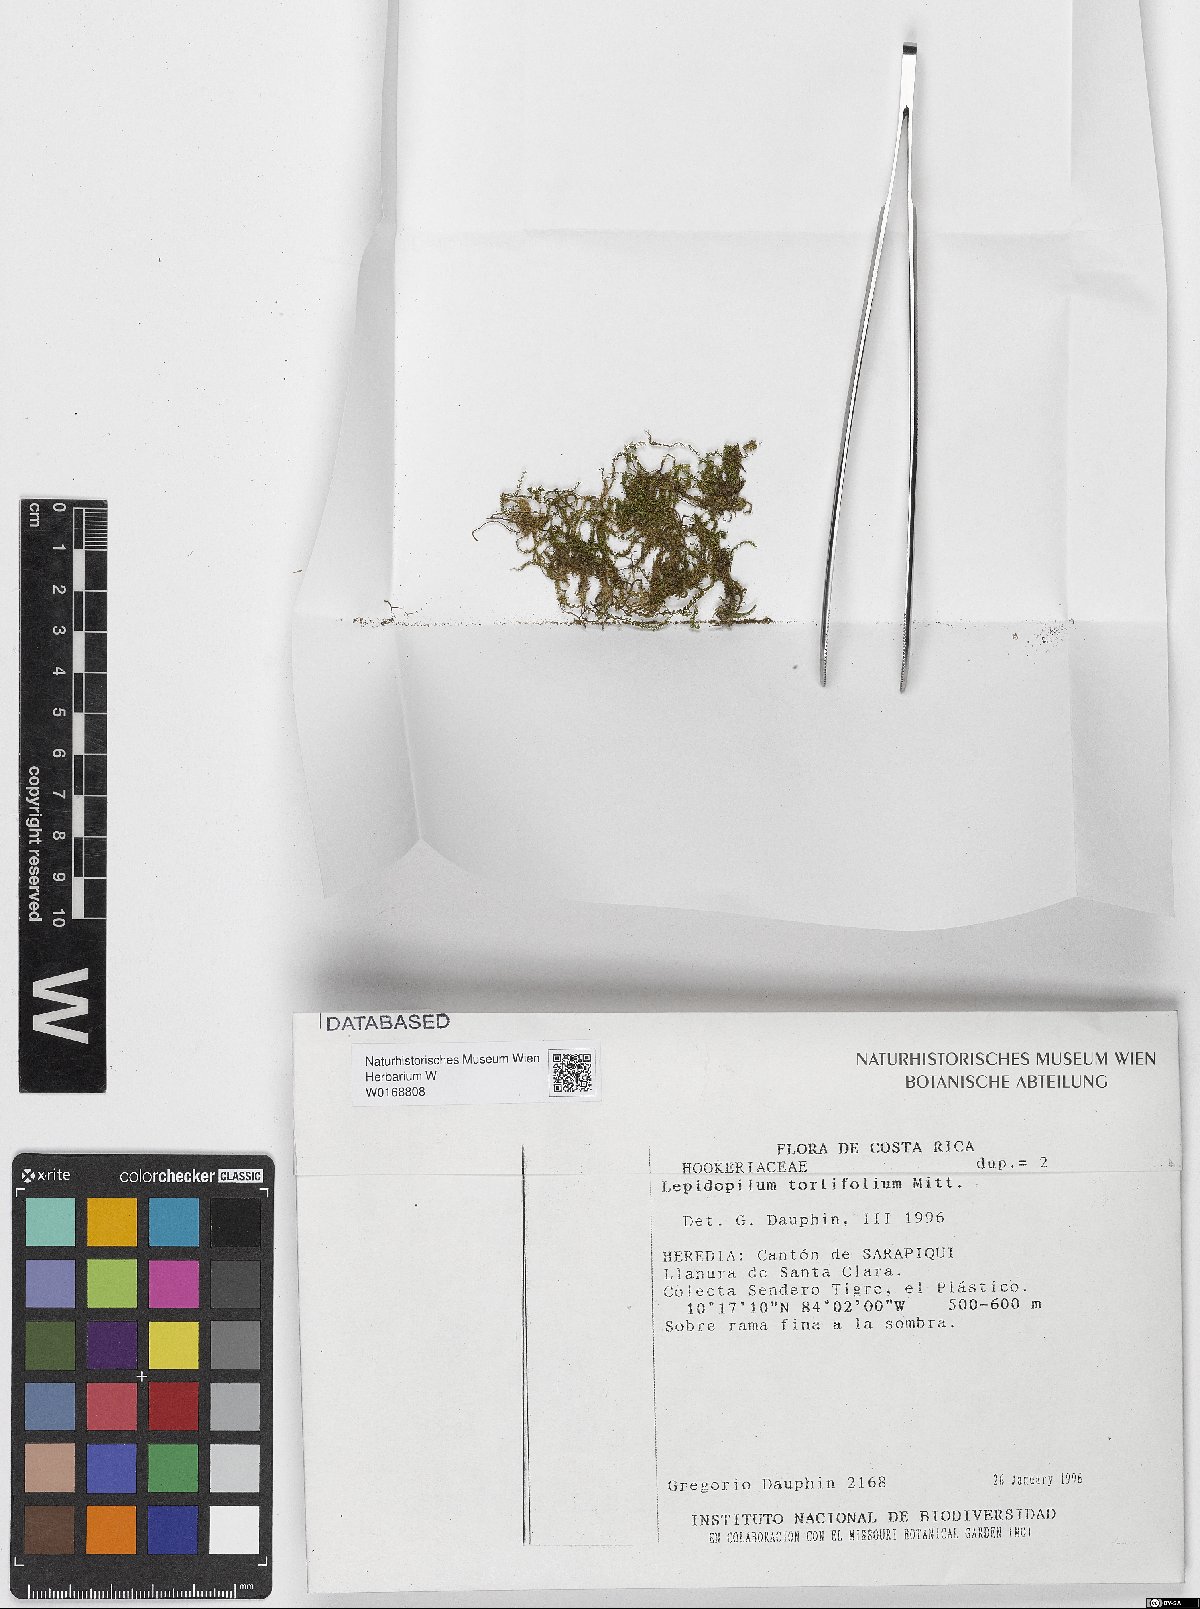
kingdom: Plantae
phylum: Bryophyta
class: Bryopsida
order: Hookeriales
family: Pilotrichaceae
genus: Lepidopilum
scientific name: Lepidopilum tortifolium
